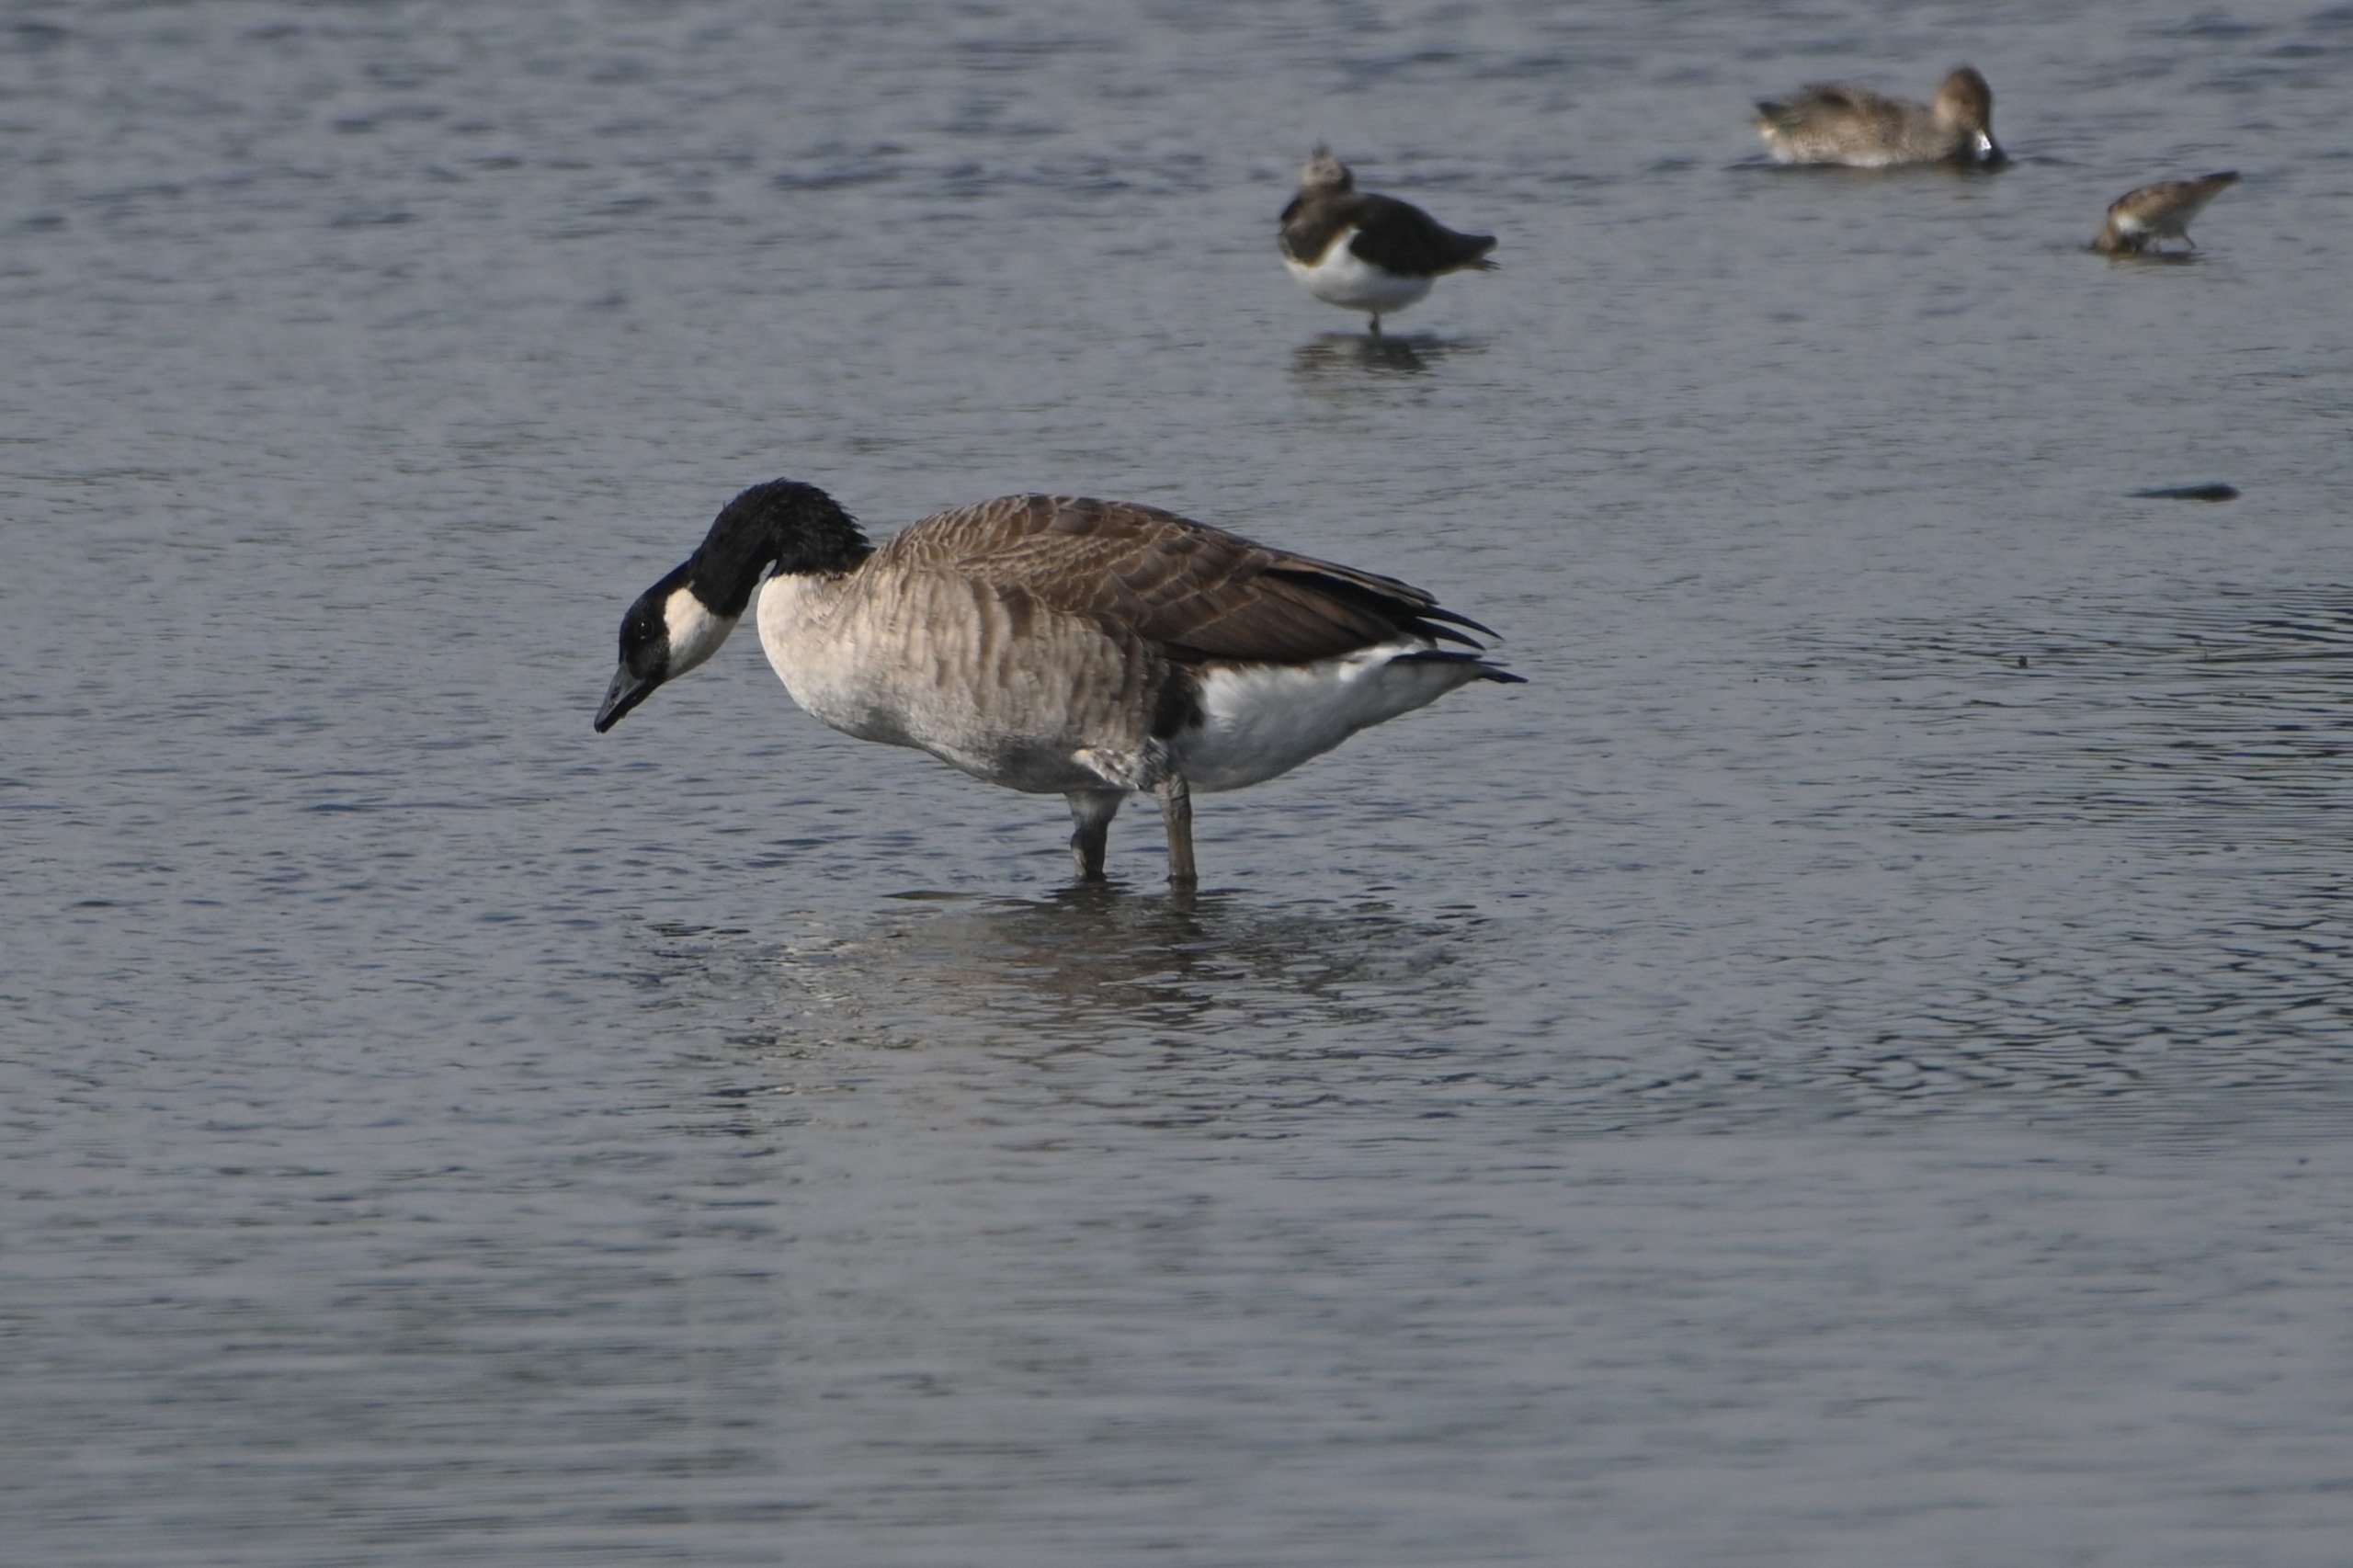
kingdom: Animalia
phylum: Chordata
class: Aves
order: Anseriformes
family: Anatidae
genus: Branta
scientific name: Branta canadensis
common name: Canadagås
